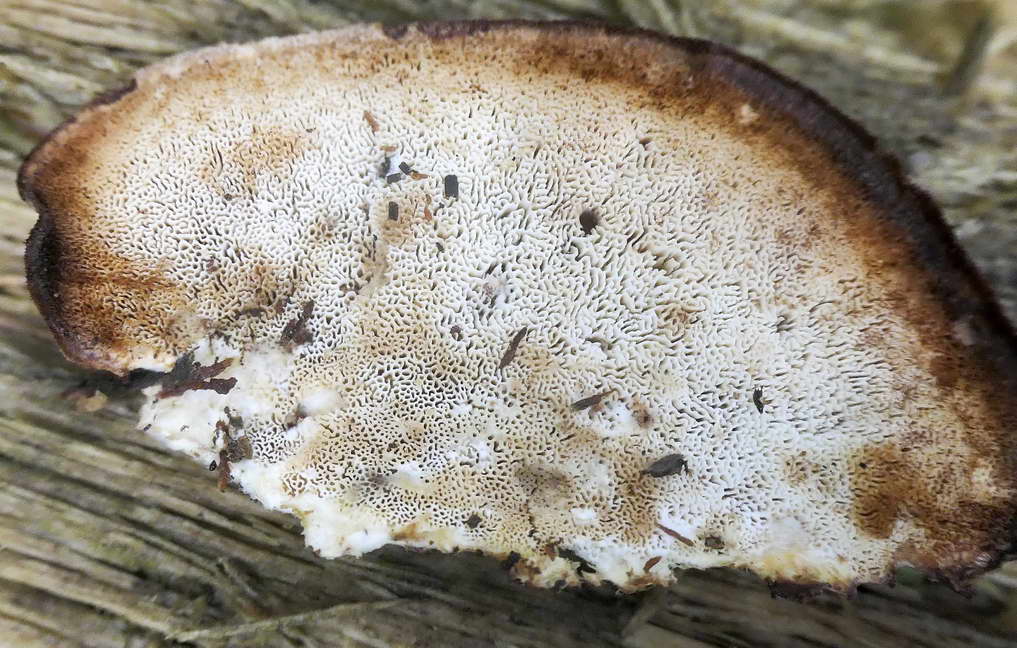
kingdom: Fungi
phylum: Basidiomycota
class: Agaricomycetes
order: Polyporales
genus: Fuscopostia
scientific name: Fuscopostia fragilis
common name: brunende kødporesvamp
